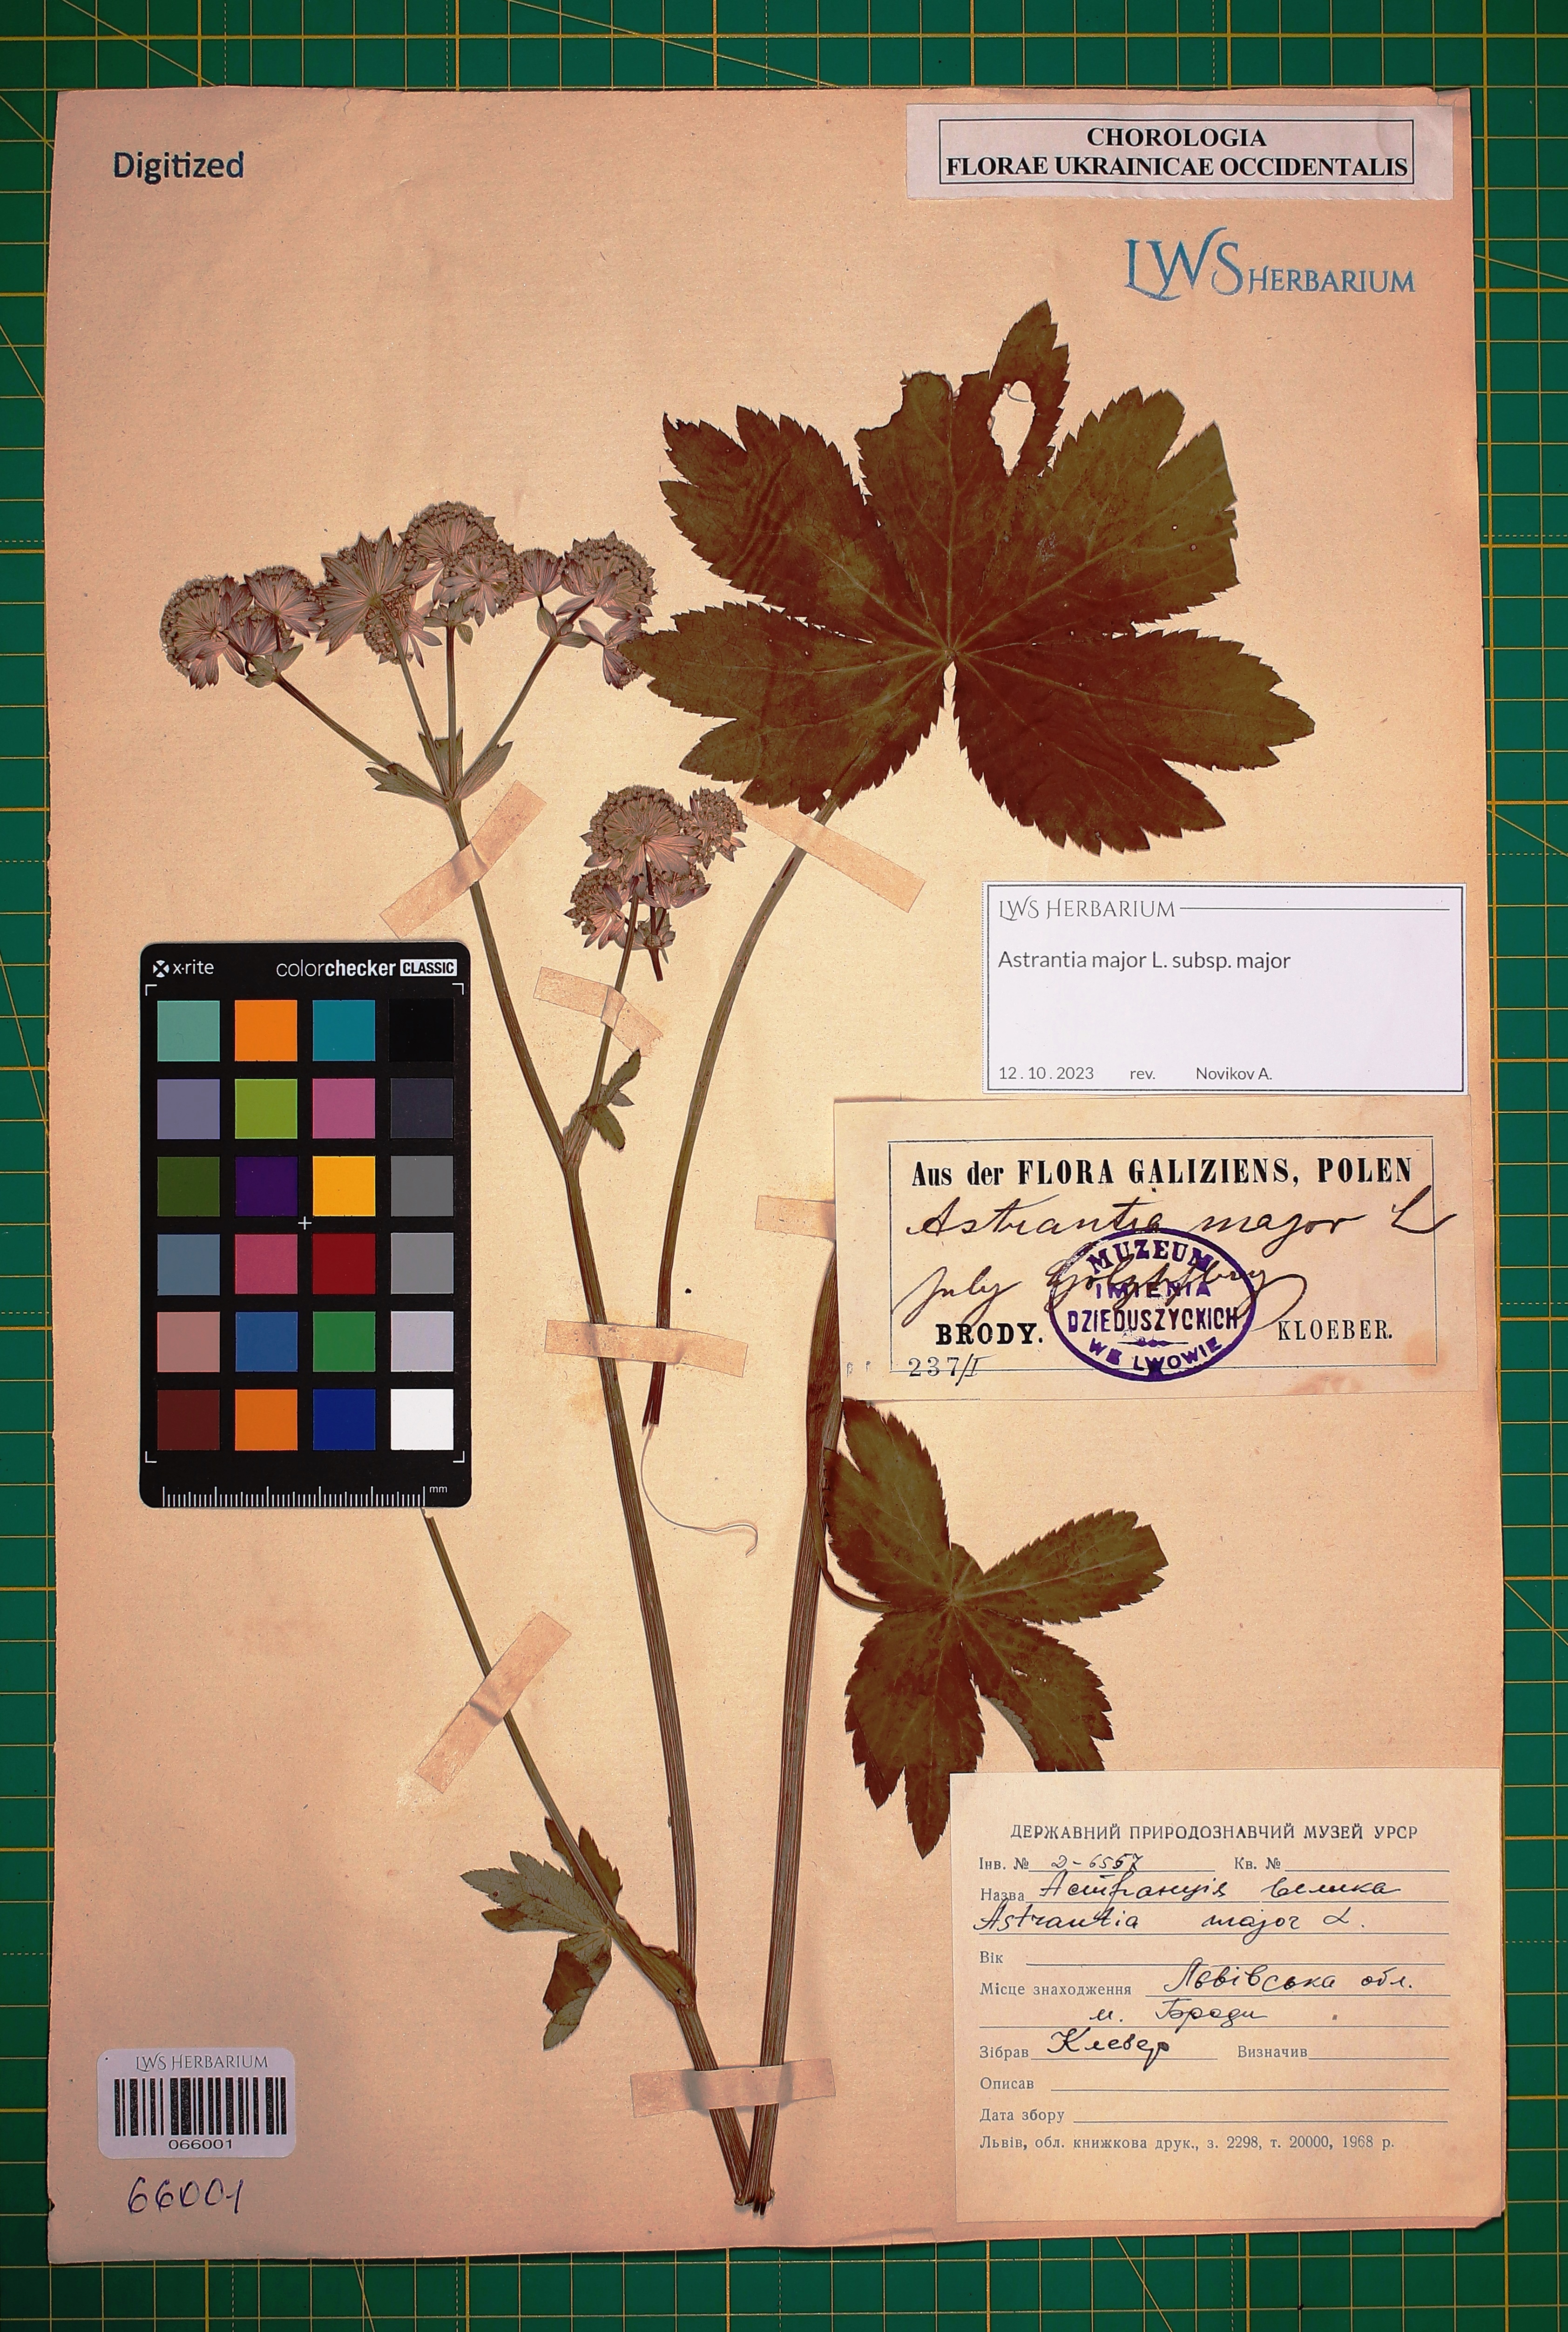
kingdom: Plantae
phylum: Tracheophyta
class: Magnoliopsida
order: Apiales
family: Apiaceae
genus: Astrantia
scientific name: Astrantia major
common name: Greater masterwort
